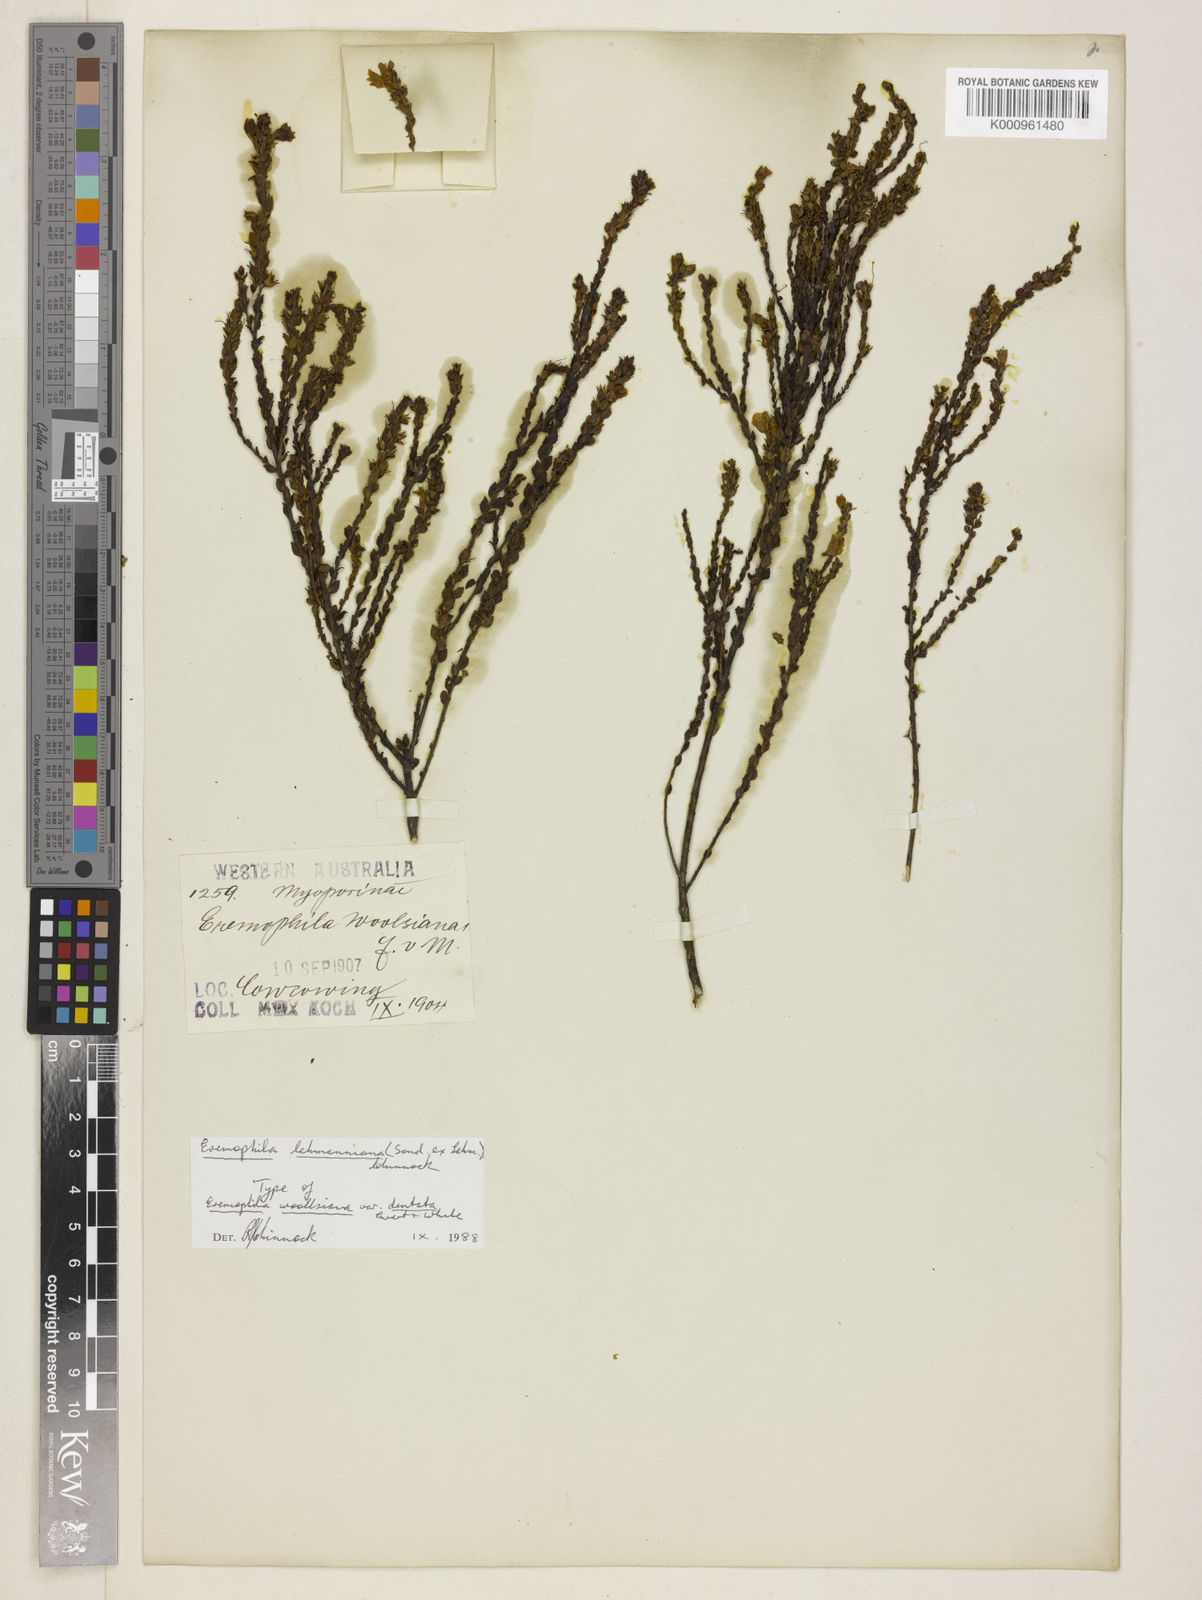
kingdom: Plantae
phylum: Tracheophyta
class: Magnoliopsida
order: Lamiales
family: Scrophulariaceae
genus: Eremophila
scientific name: Eremophila lehmanniana
